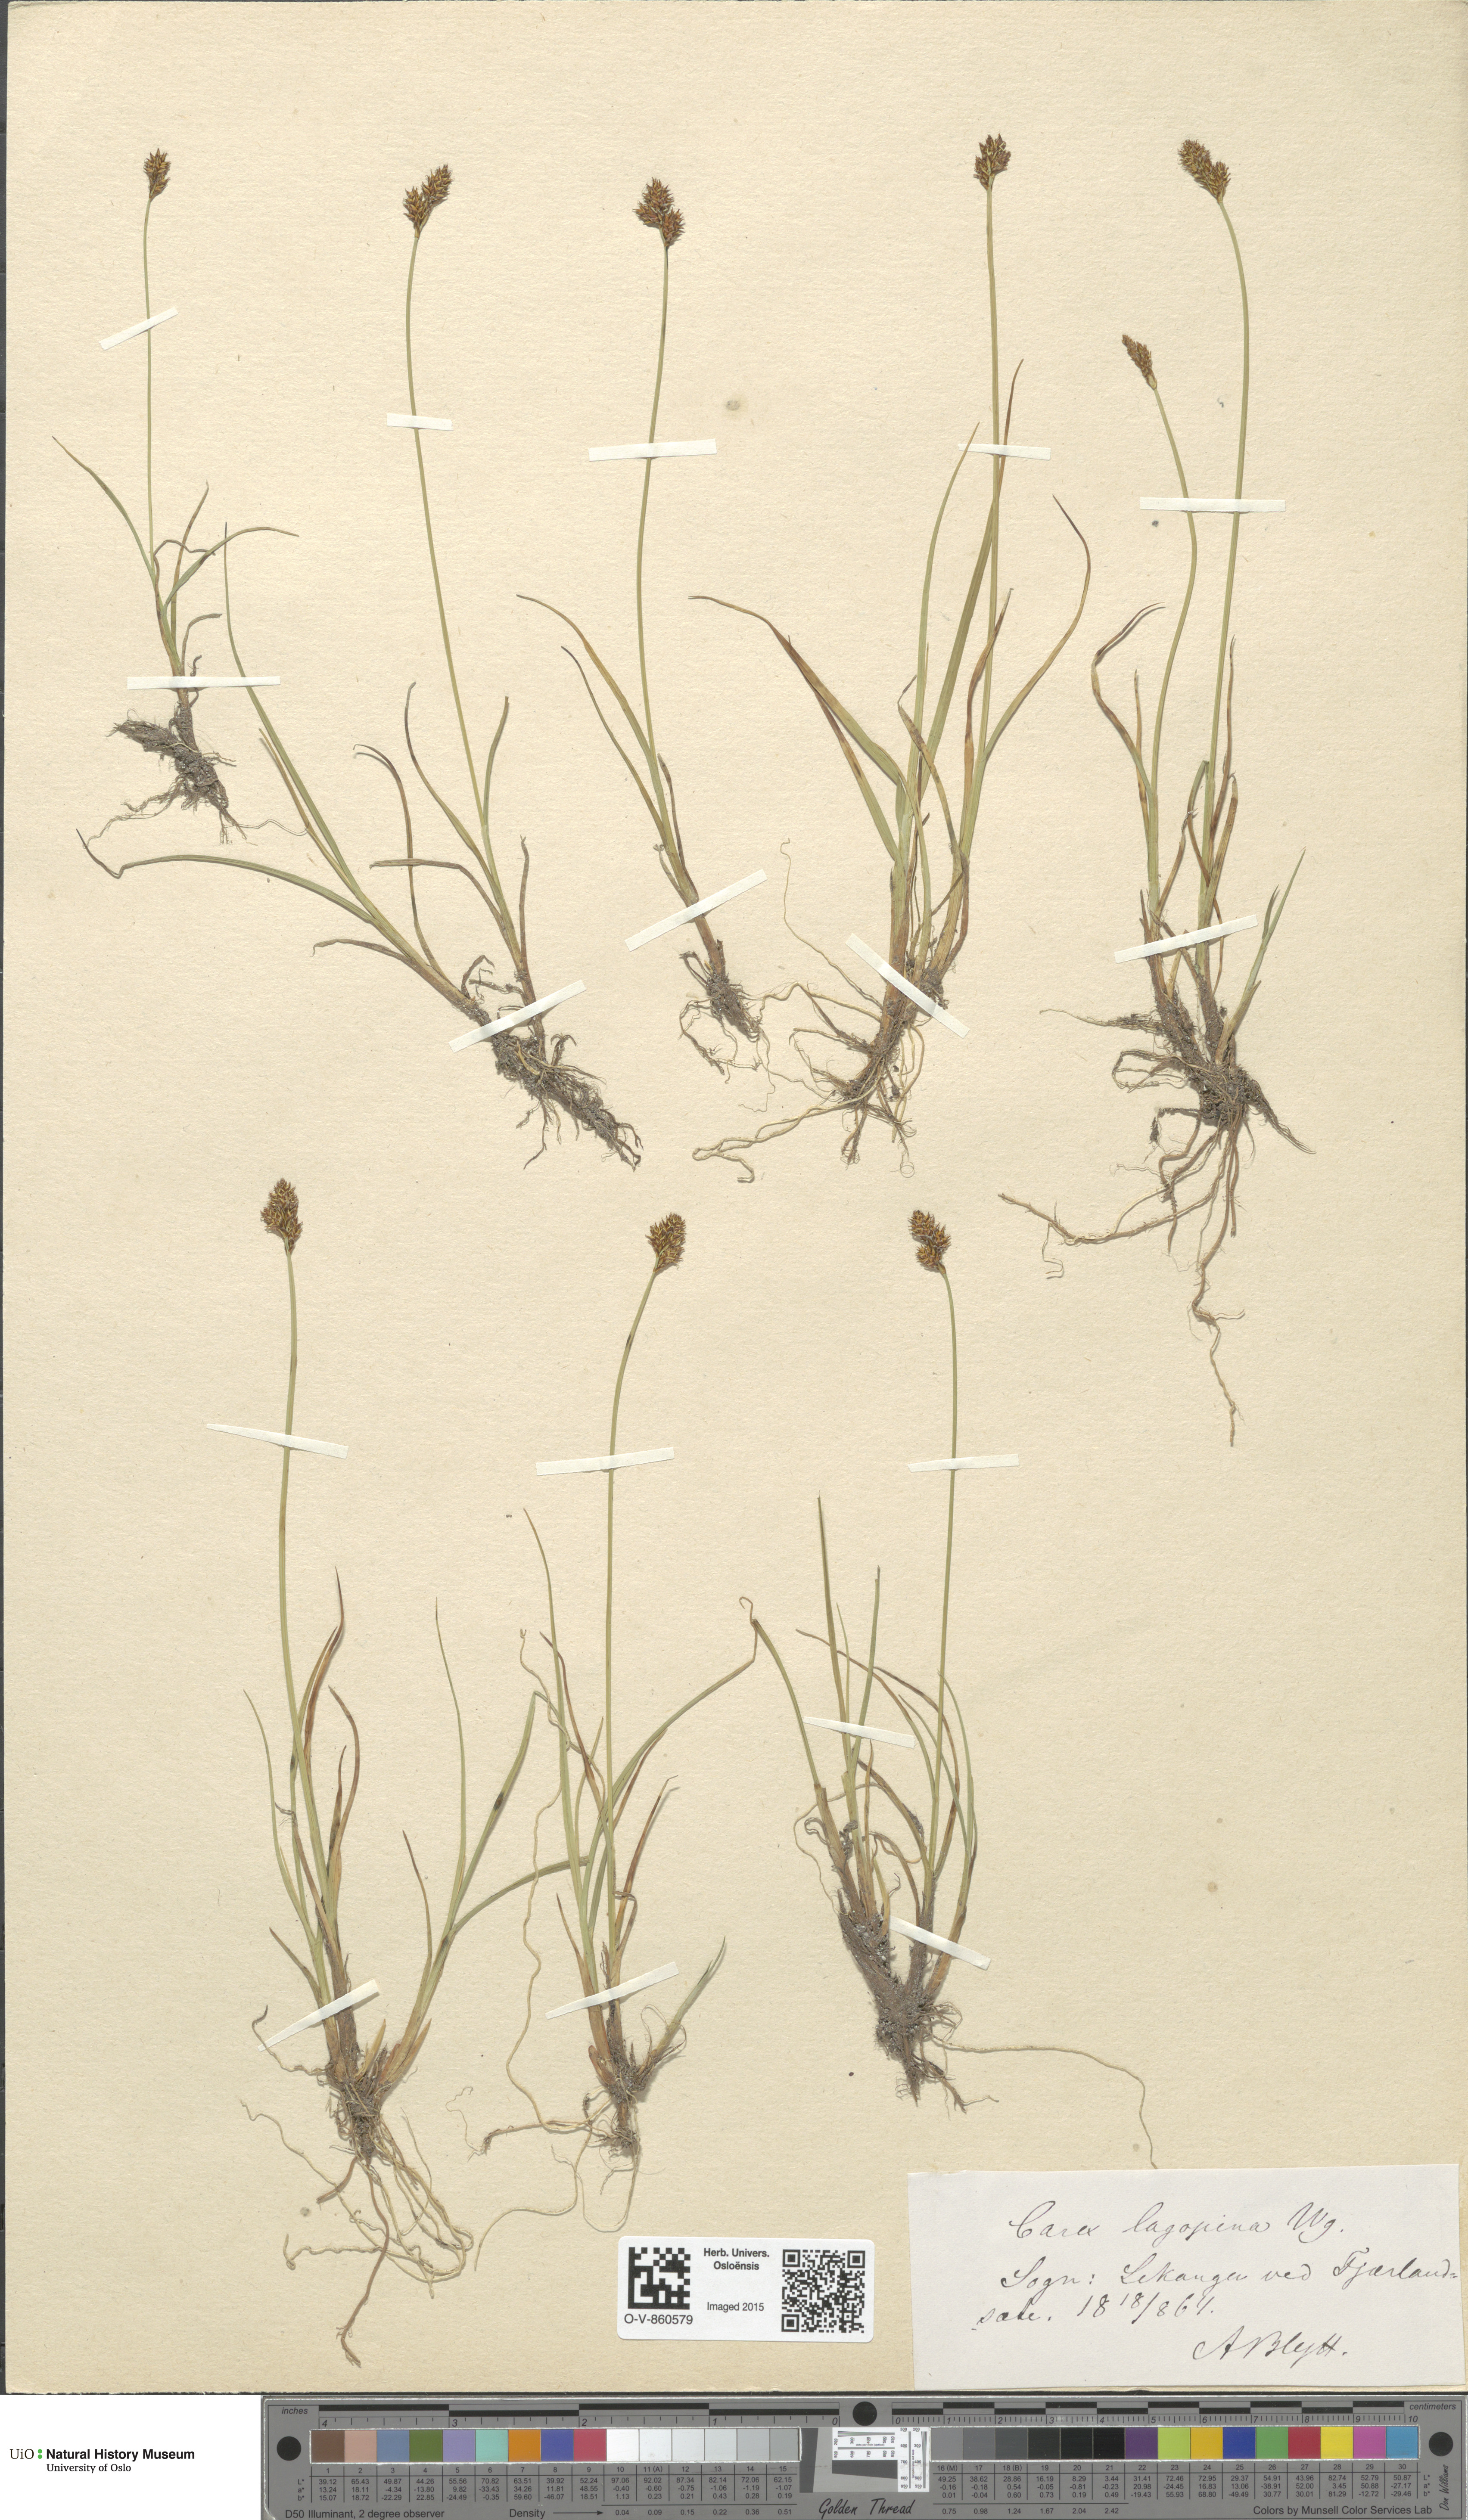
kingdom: Plantae
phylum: Tracheophyta
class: Liliopsida
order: Poales
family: Cyperaceae
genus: Carex
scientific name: Carex lachenalii
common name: Hare's-foot sedge
